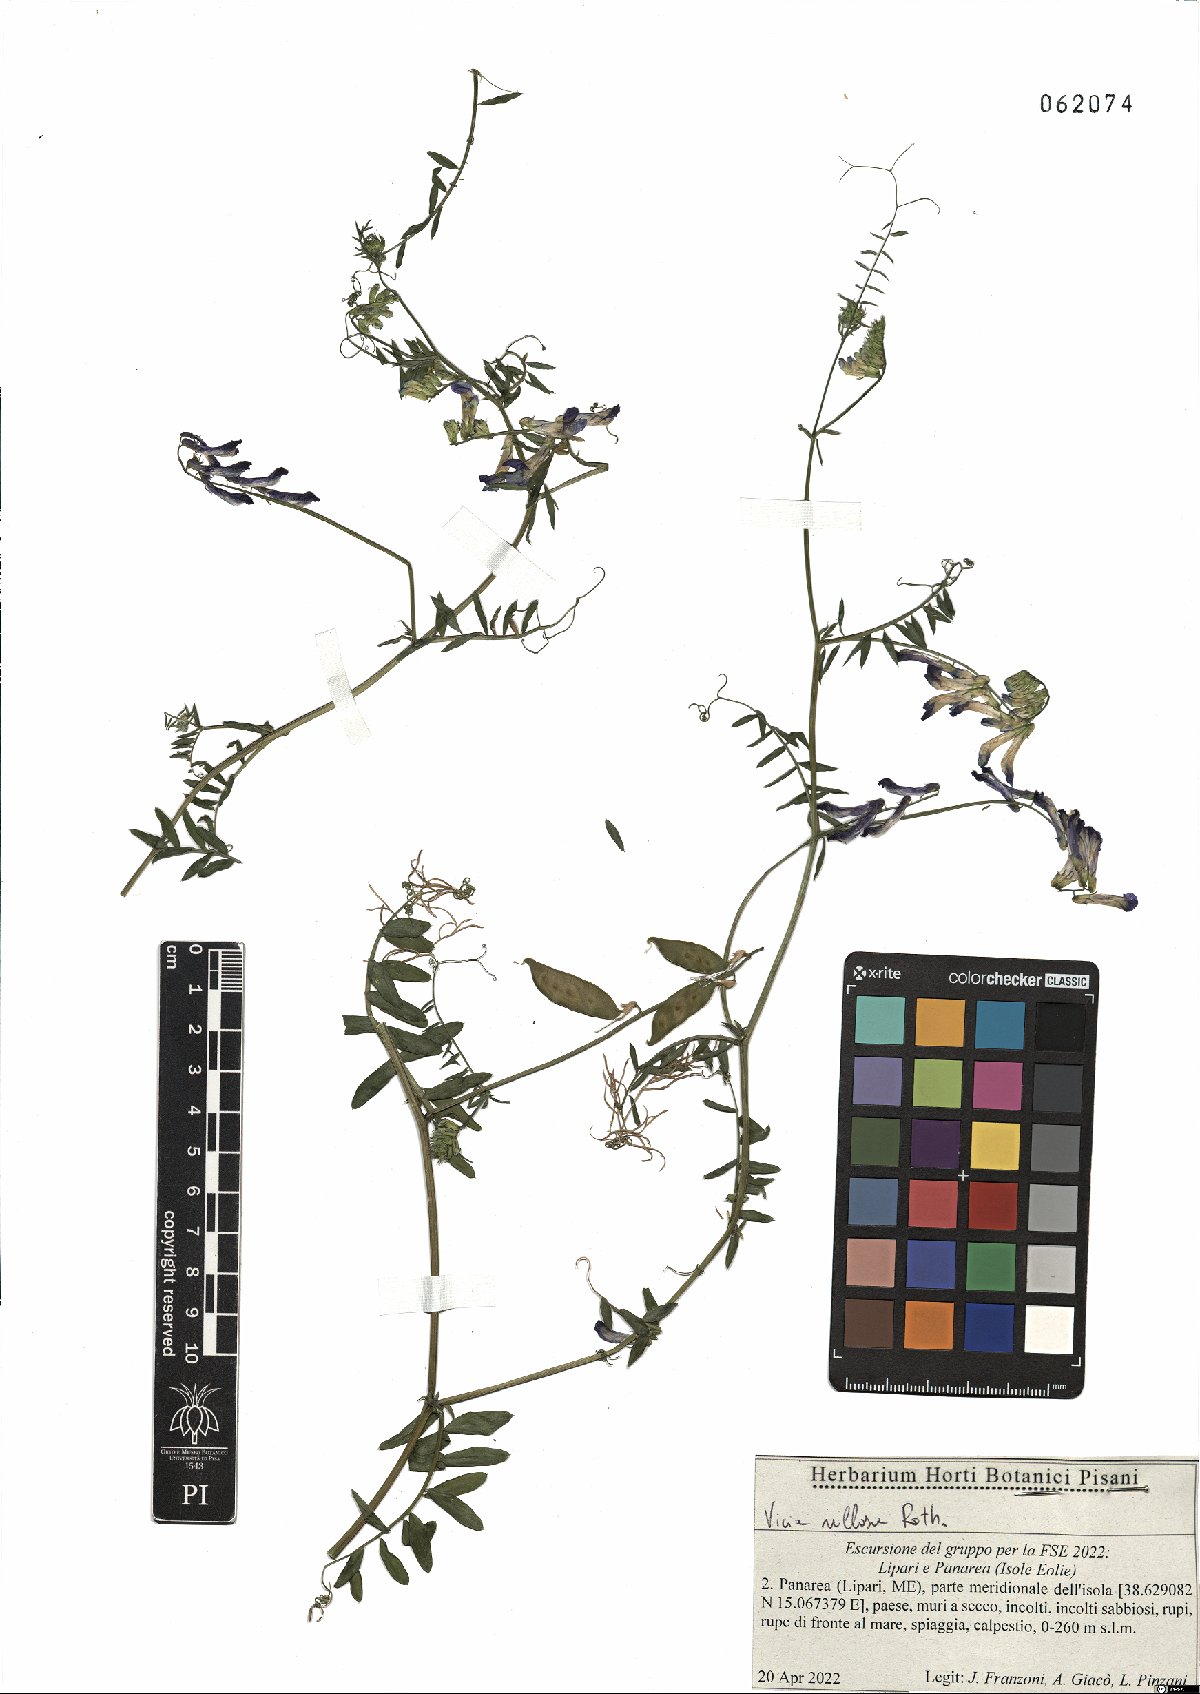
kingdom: Plantae
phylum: Tracheophyta
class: Magnoliopsida
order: Fabales
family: Fabaceae
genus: Vicia
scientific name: Vicia villosa
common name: Fodder vetch
